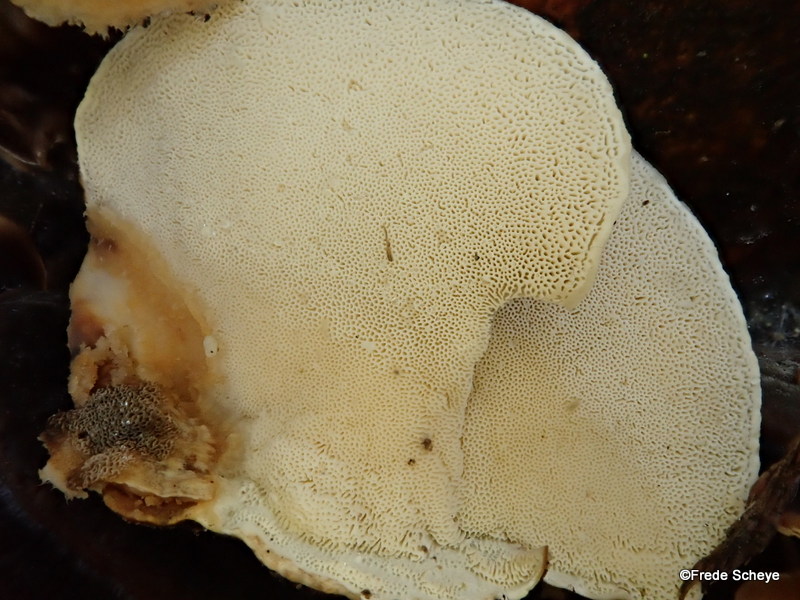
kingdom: Fungi
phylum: Basidiomycota
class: Agaricomycetes
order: Polyporales
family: Polyporaceae
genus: Trametes
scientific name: Trametes versicolor
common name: broget læderporesvamp
